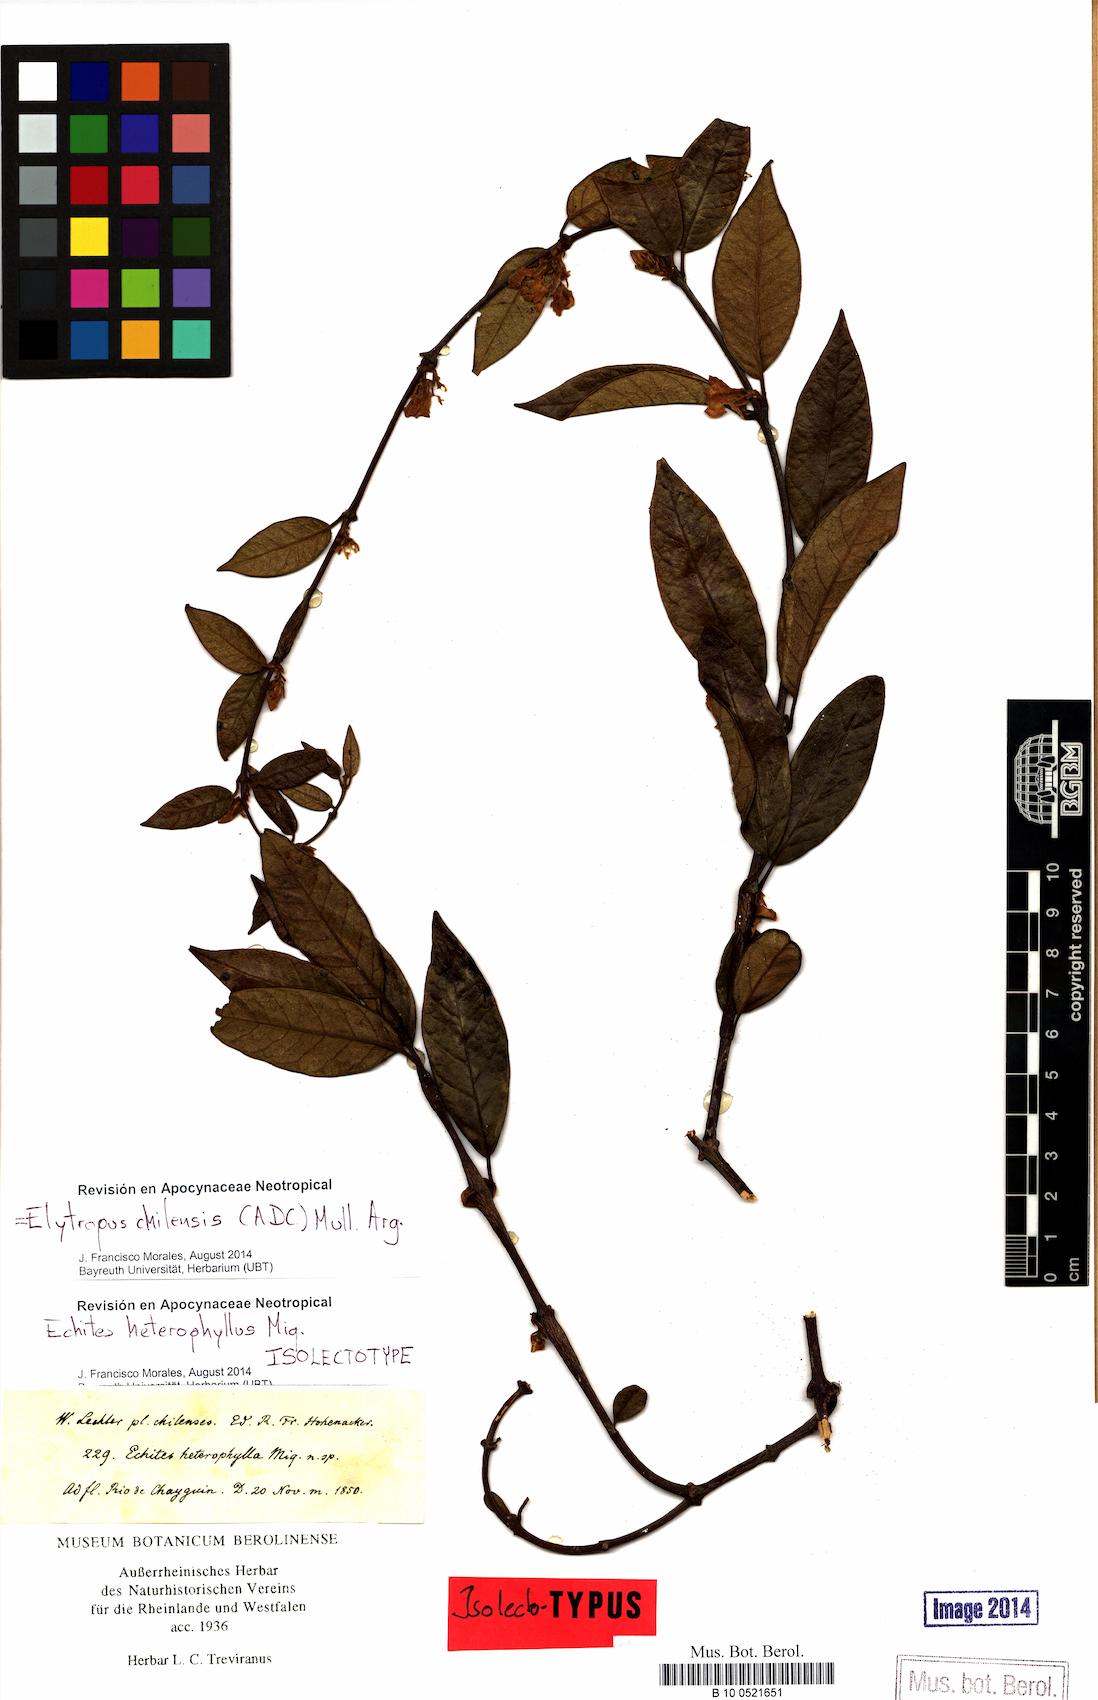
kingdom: Plantae
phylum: Tracheophyta
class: Magnoliopsida
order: Gentianales
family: Apocynaceae
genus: Mandevilla
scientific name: Mandevilla pubescens
